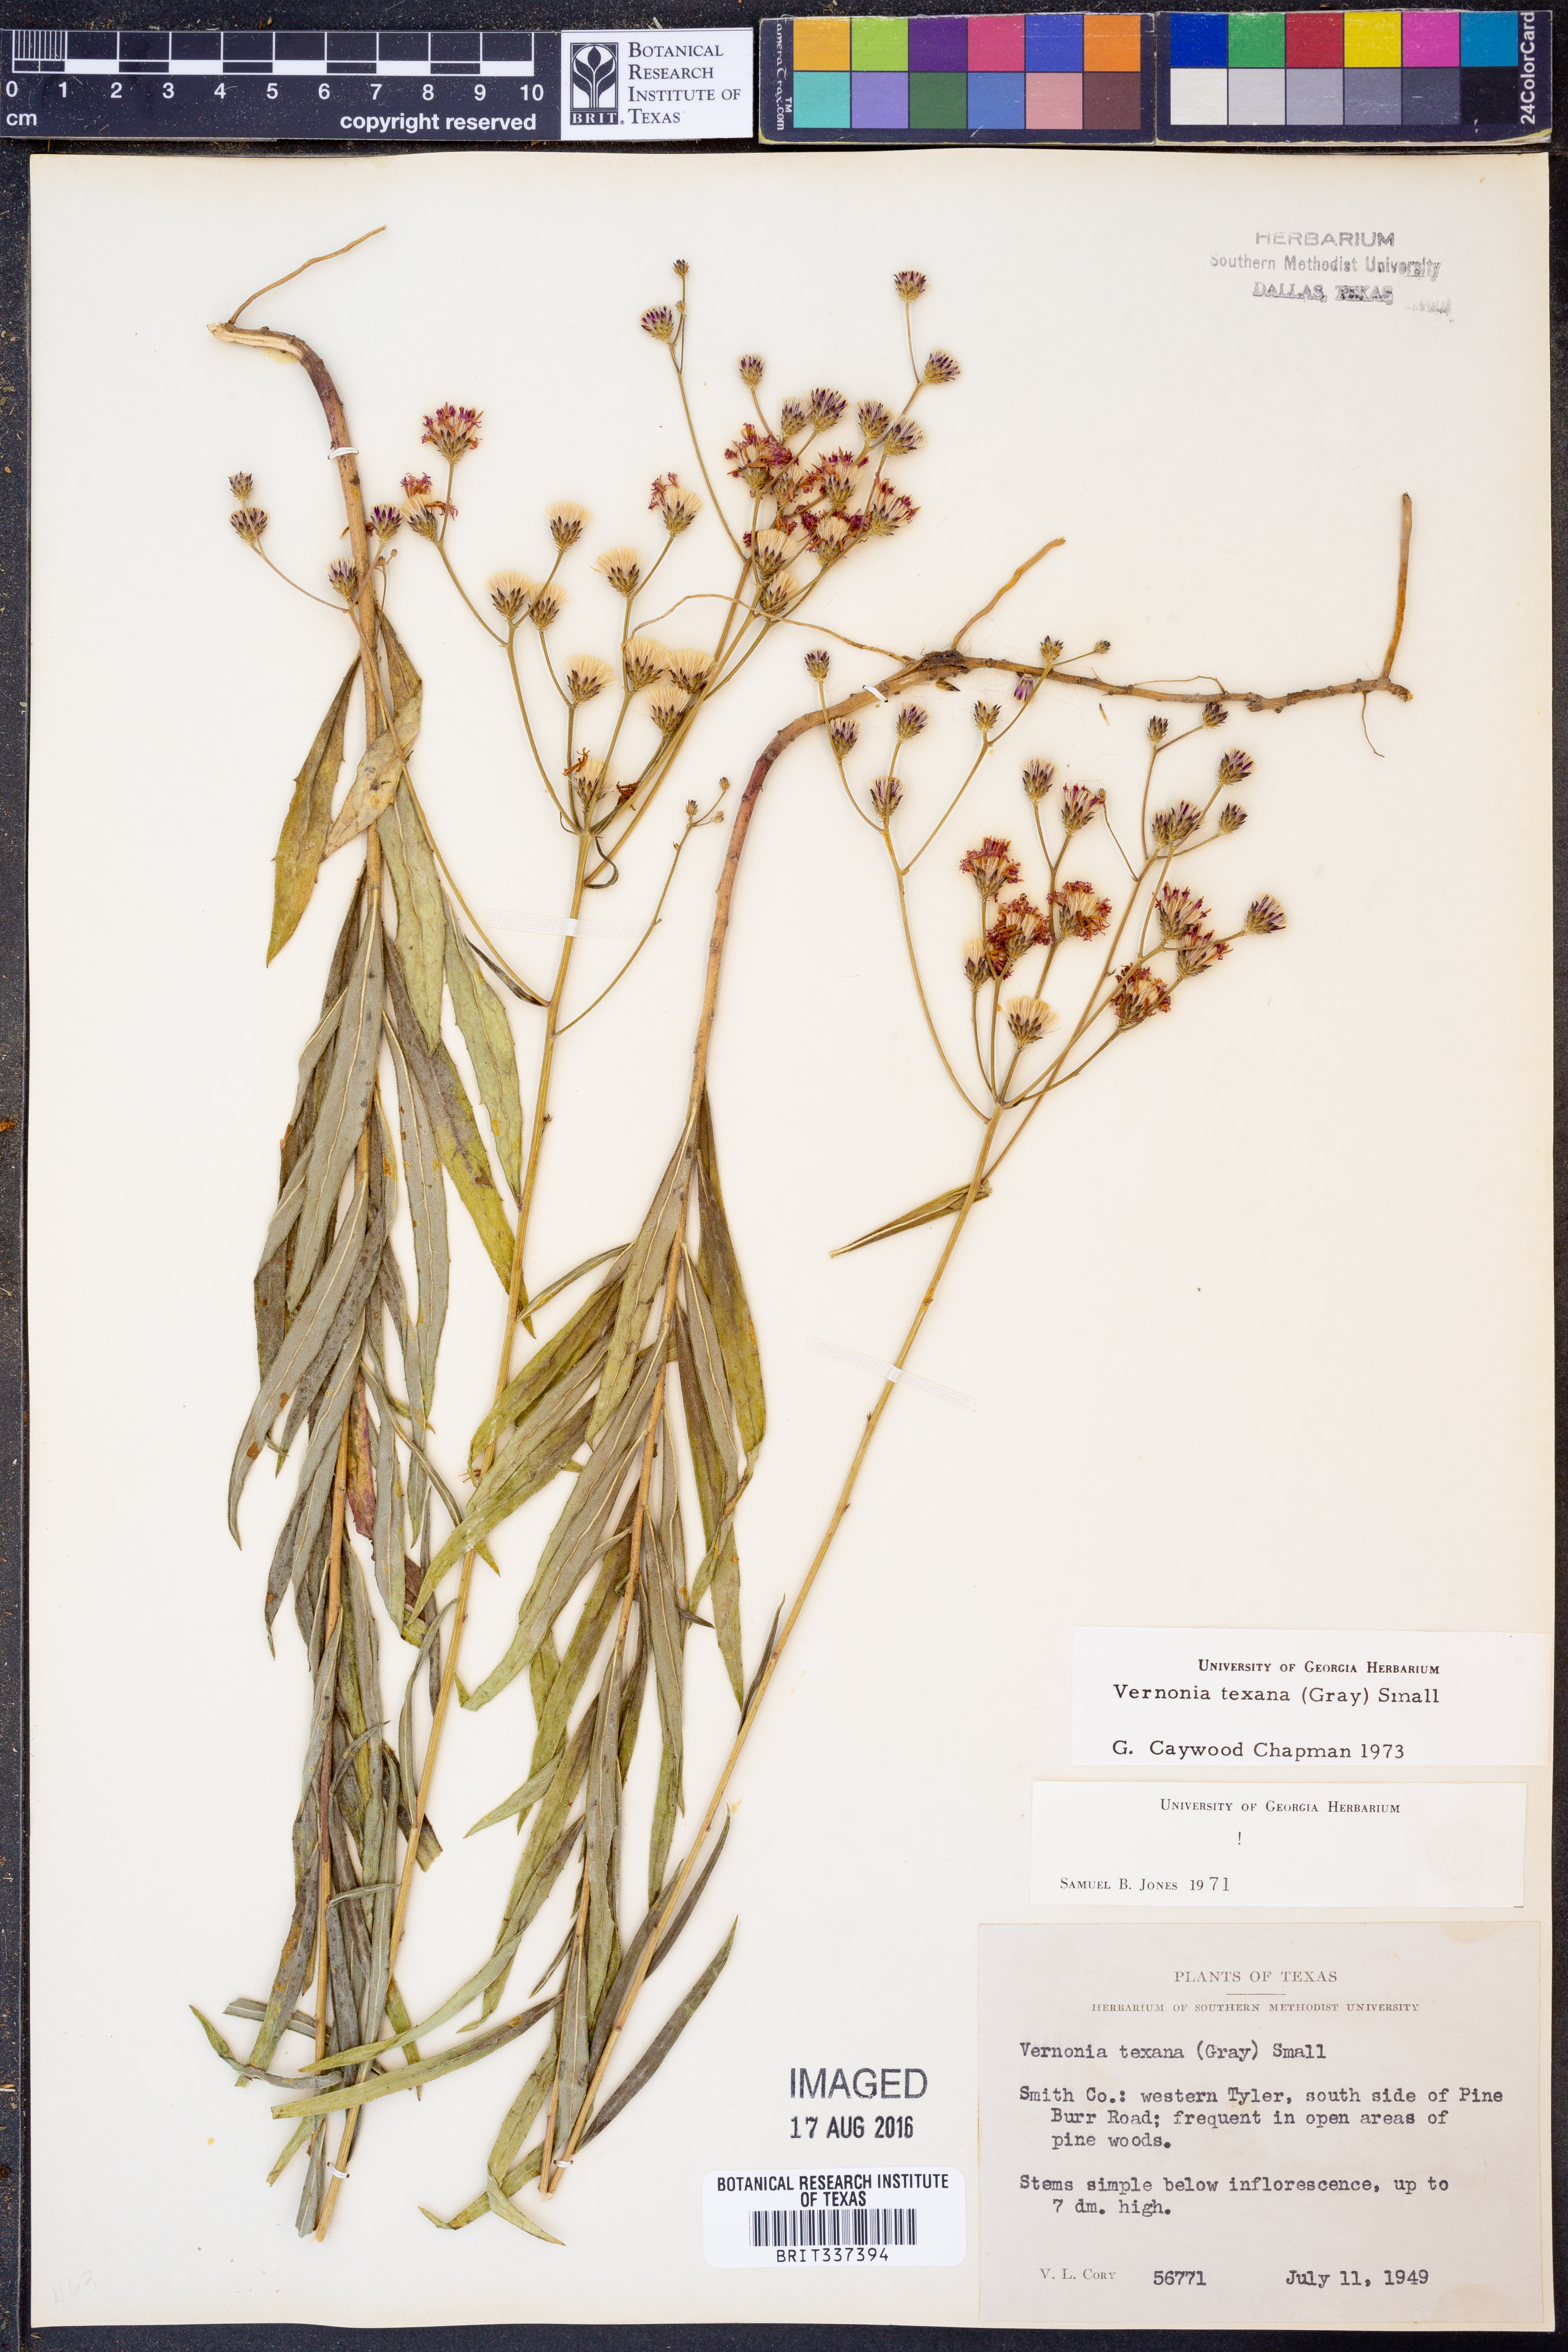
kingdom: Plantae
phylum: Tracheophyta
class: Magnoliopsida
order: Asterales
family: Asteraceae
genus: Vernonia
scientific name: Vernonia texana
